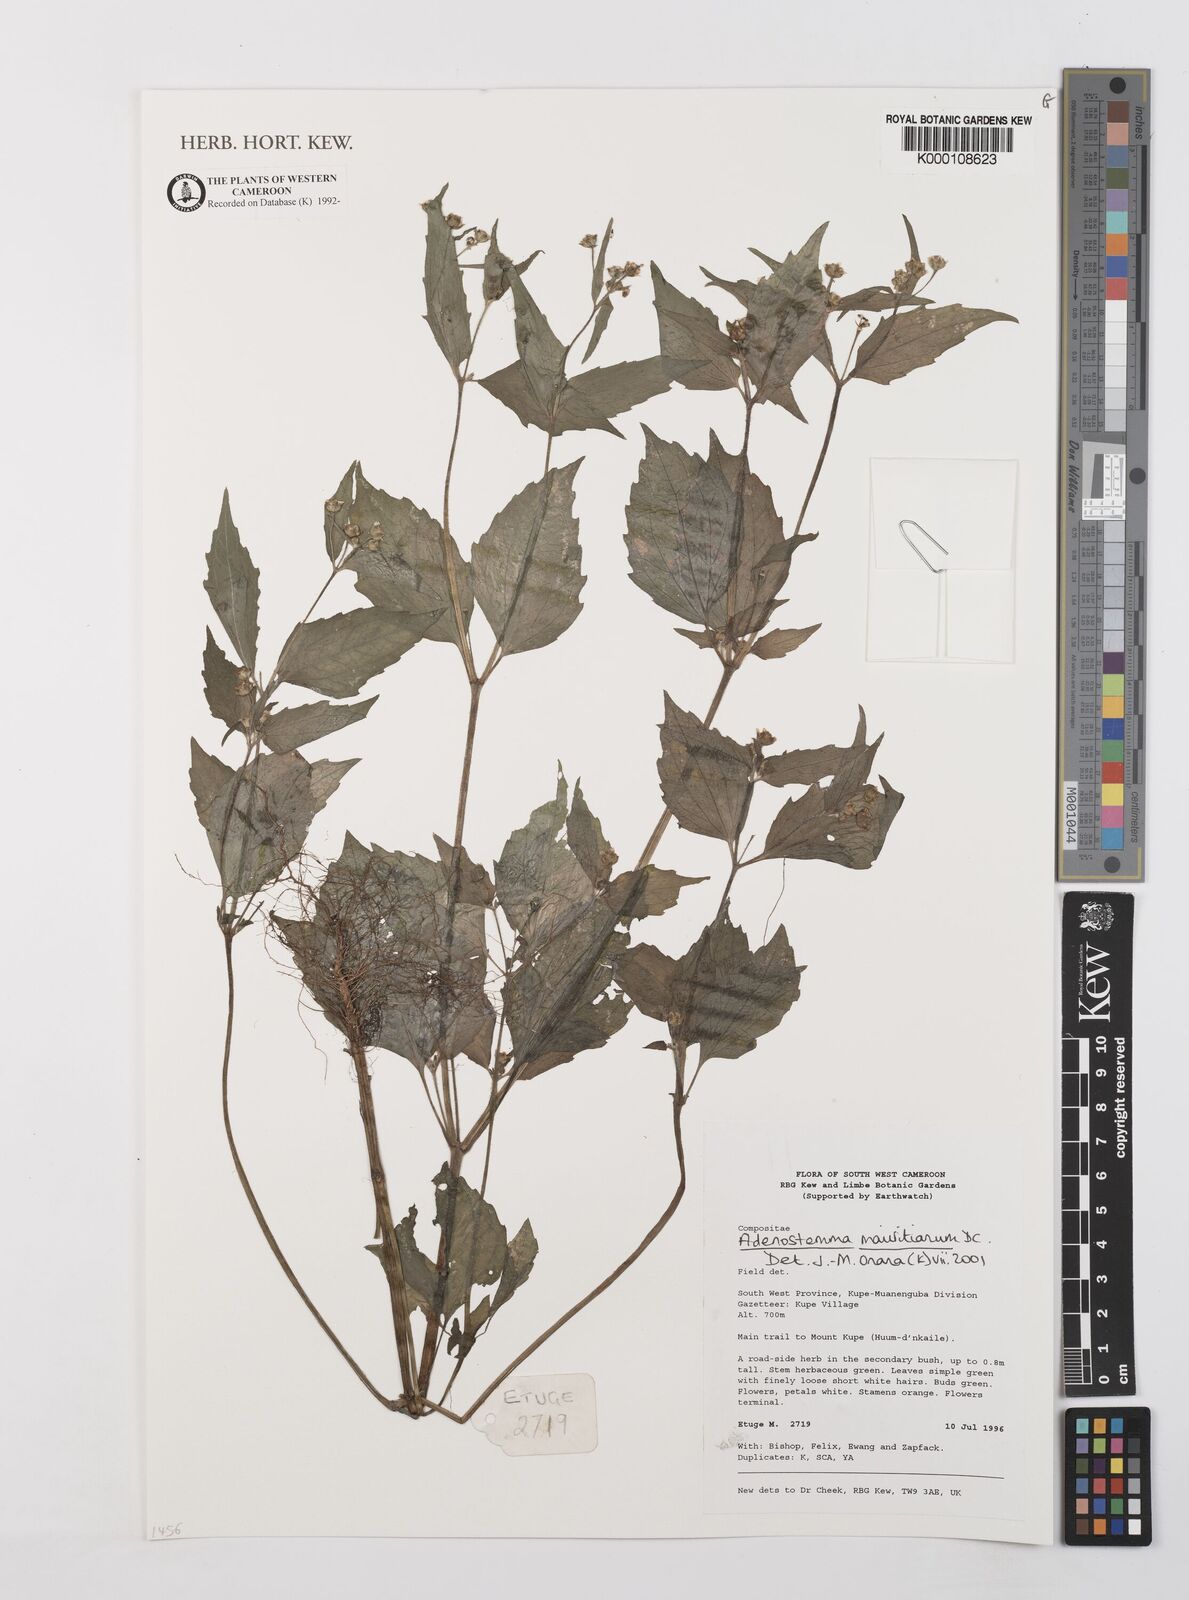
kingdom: Plantae
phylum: Tracheophyta
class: Magnoliopsida
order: Asterales
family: Asteraceae
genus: Adenostemma
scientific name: Adenostemma mauritianum
